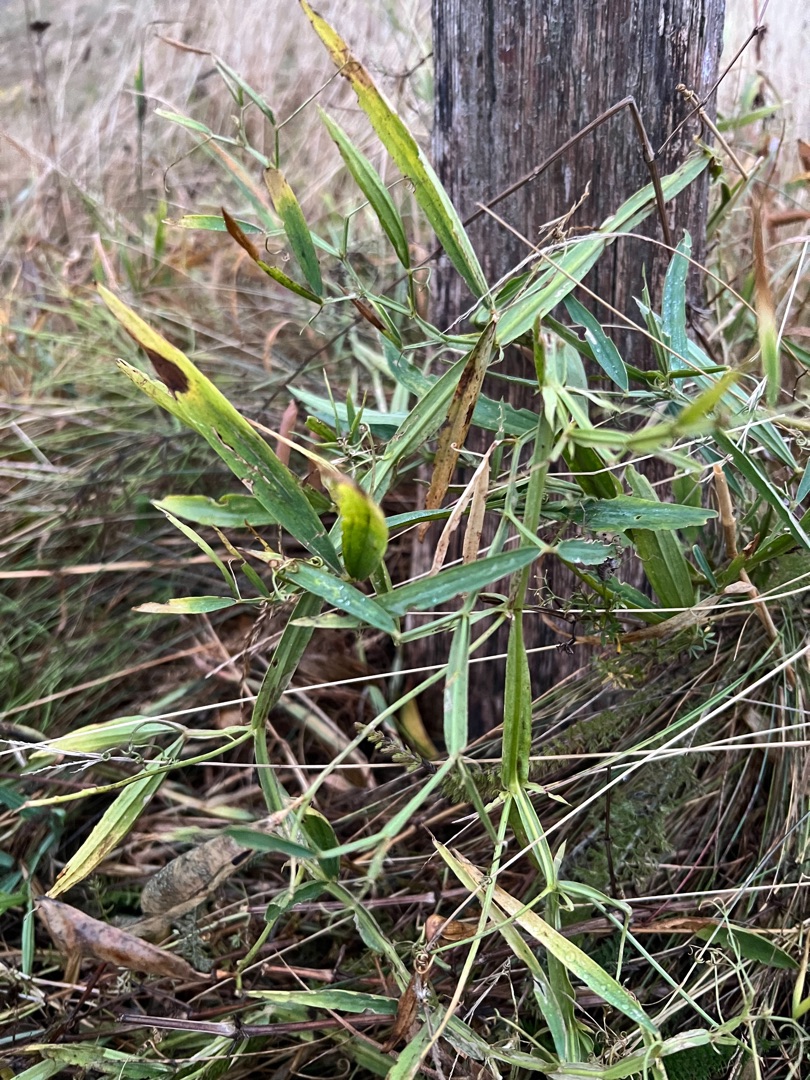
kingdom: Plantae
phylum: Tracheophyta
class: Magnoliopsida
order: Fabales
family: Fabaceae
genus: Lathyrus
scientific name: Lathyrus sylvestris
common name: Skov-fladbælg
